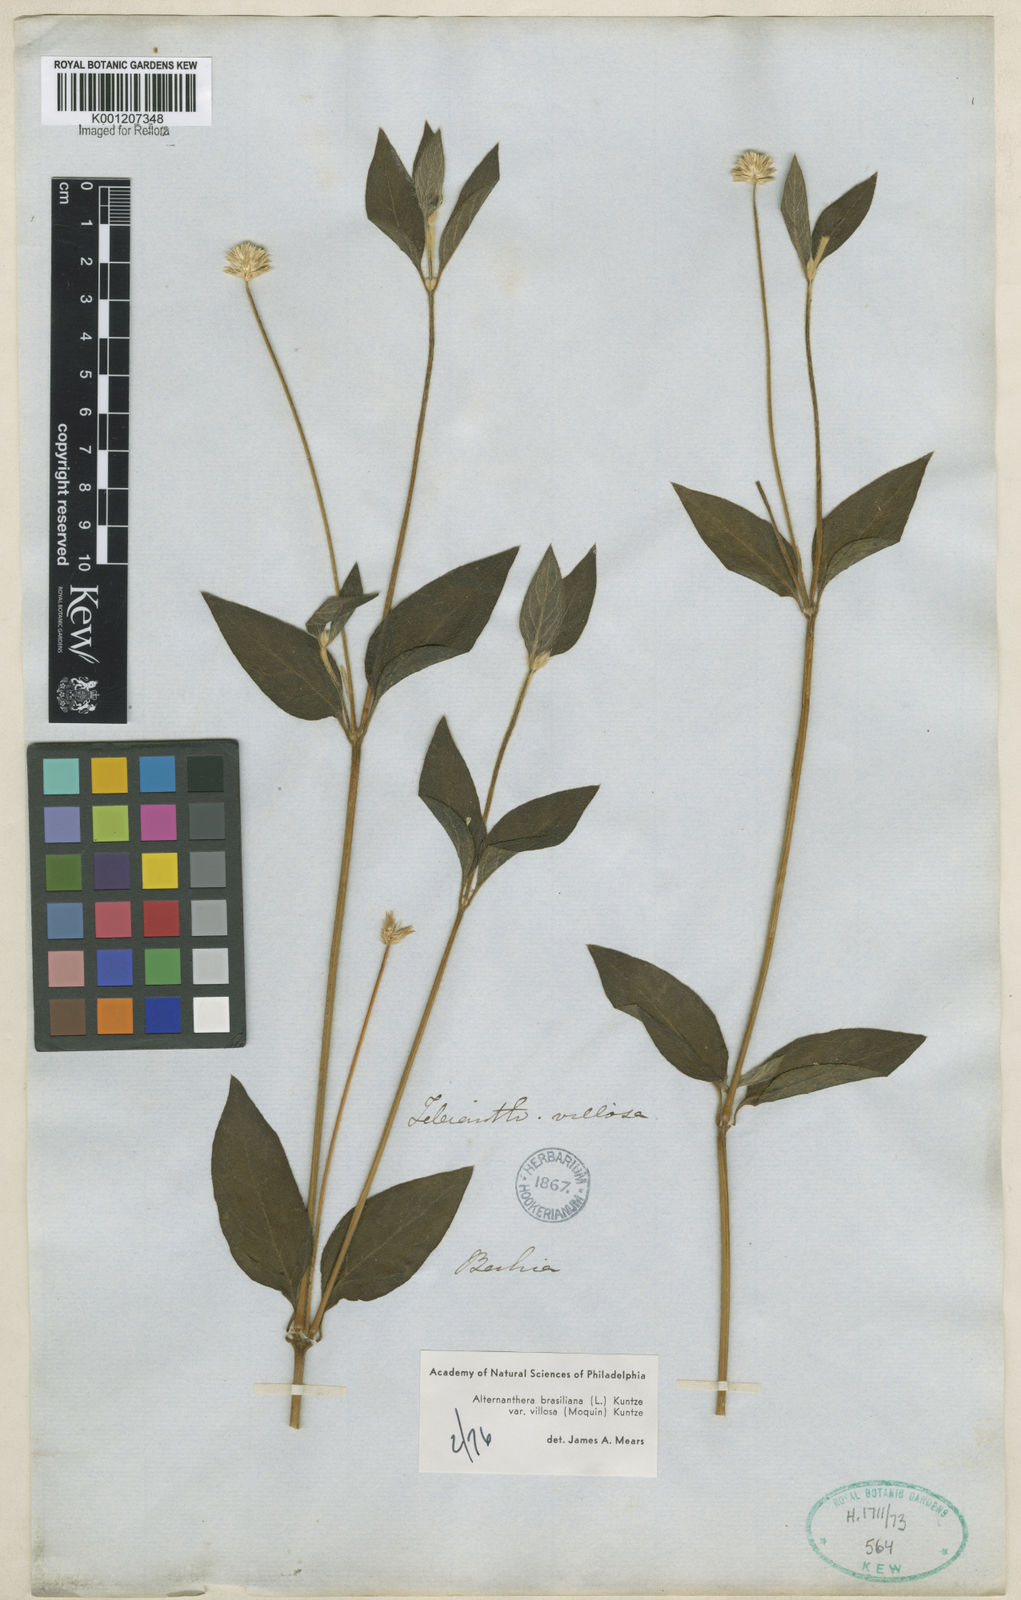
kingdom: Plantae
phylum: Tracheophyta
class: Magnoliopsida
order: Caryophyllales
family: Amaranthaceae
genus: Alternanthera
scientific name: Alternanthera ramosissima
